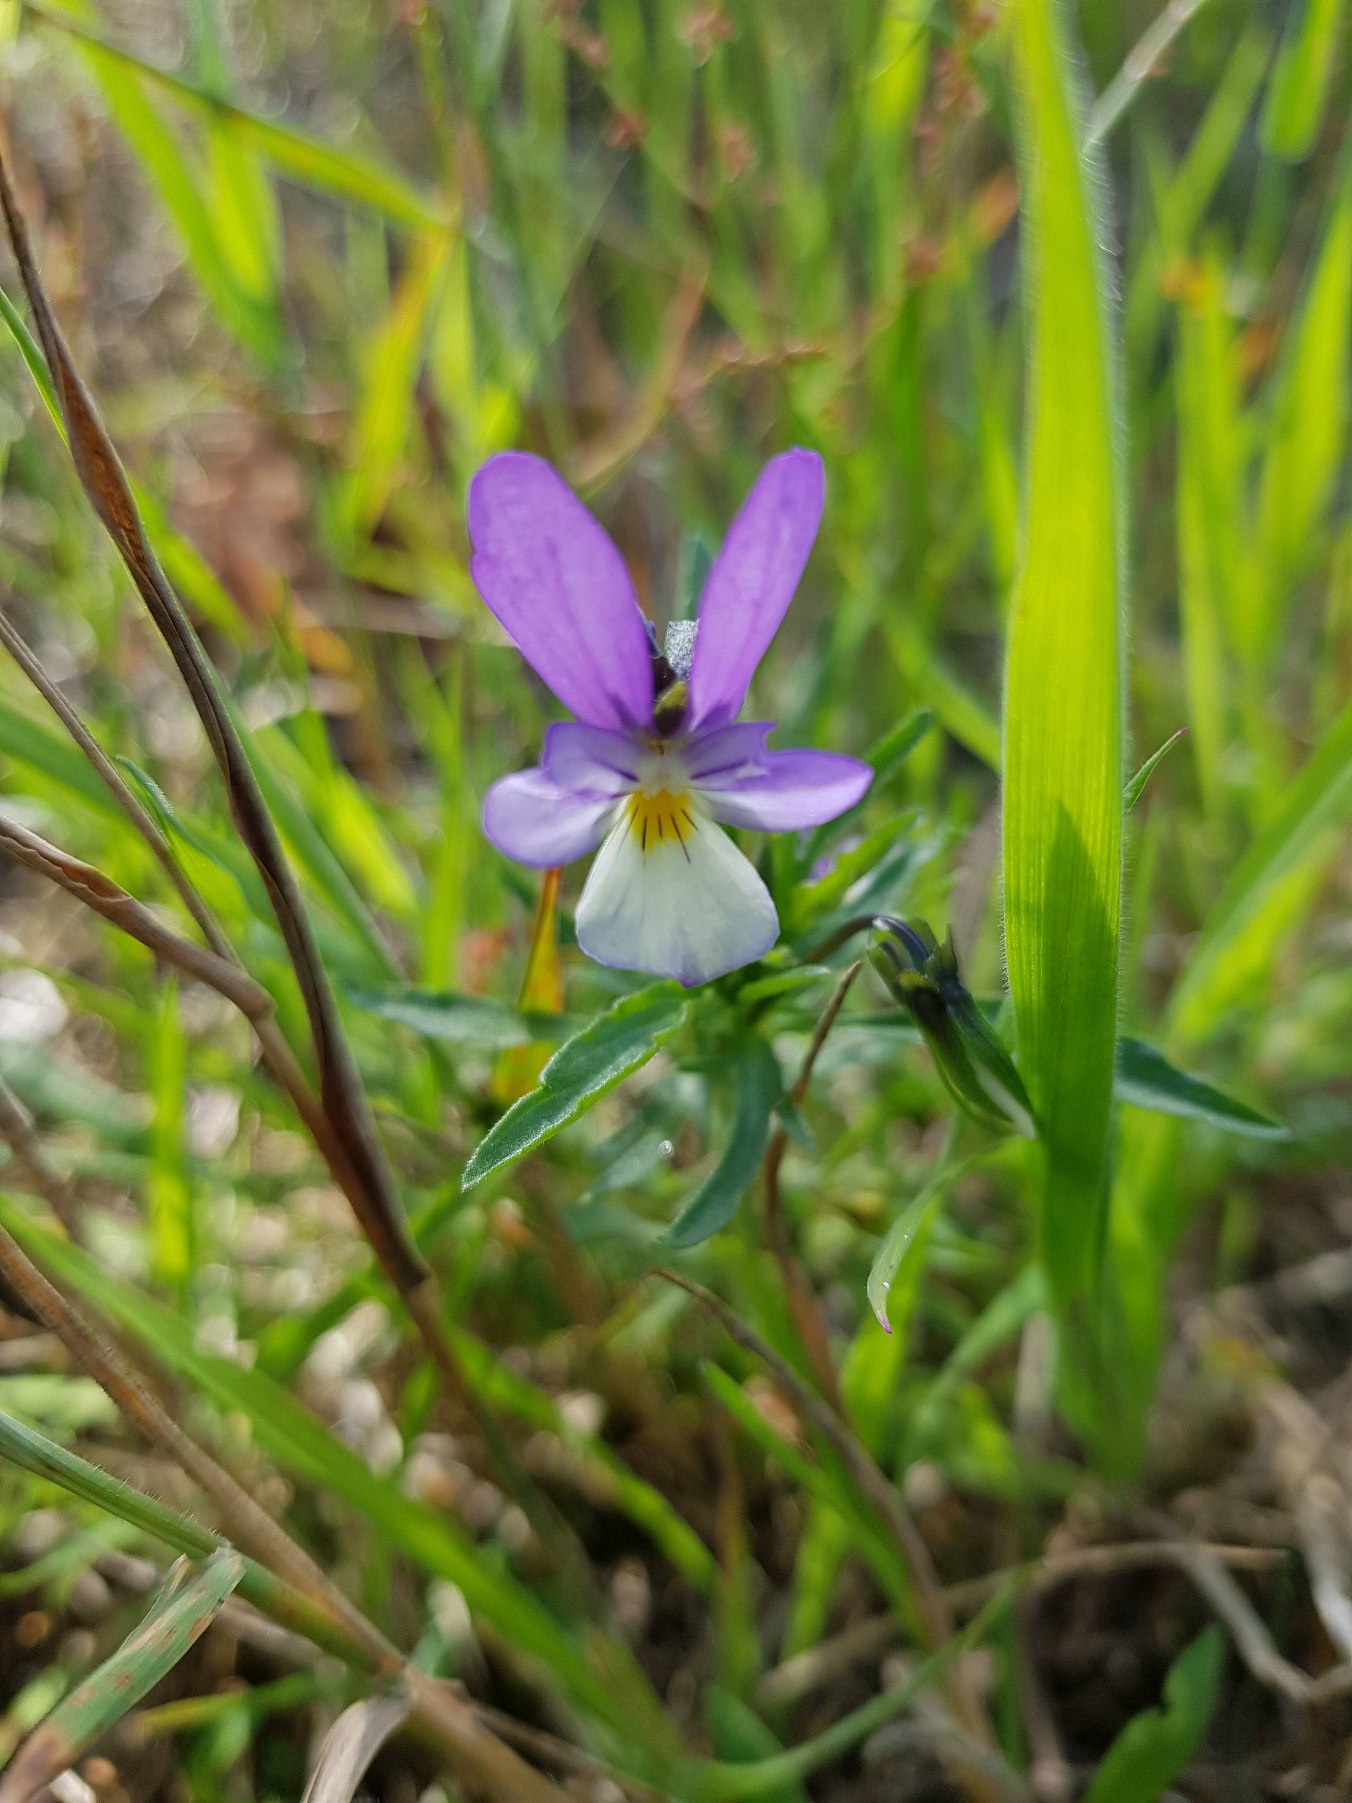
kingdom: Plantae
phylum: Tracheophyta
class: Magnoliopsida
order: Malpighiales
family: Violaceae
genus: Viola
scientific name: Viola tricolor
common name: Stedmoderblomst
